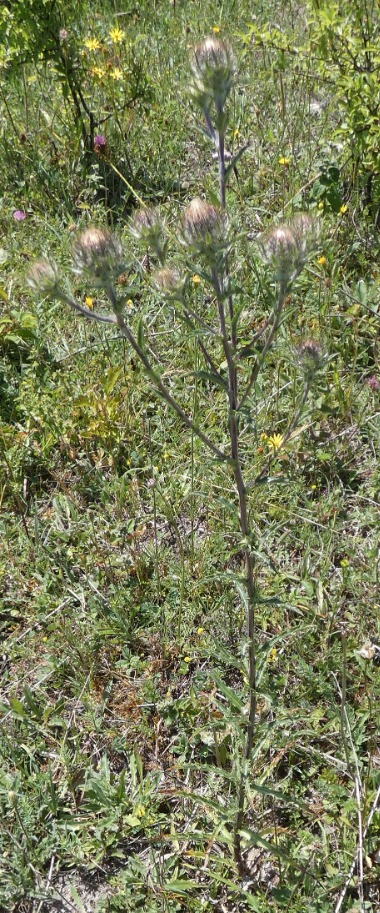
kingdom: Plantae
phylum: Tracheophyta
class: Magnoliopsida
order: Asterales
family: Asteraceae
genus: Carlina
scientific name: Carlina biebersteinii
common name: Langbladet bakketidsel
